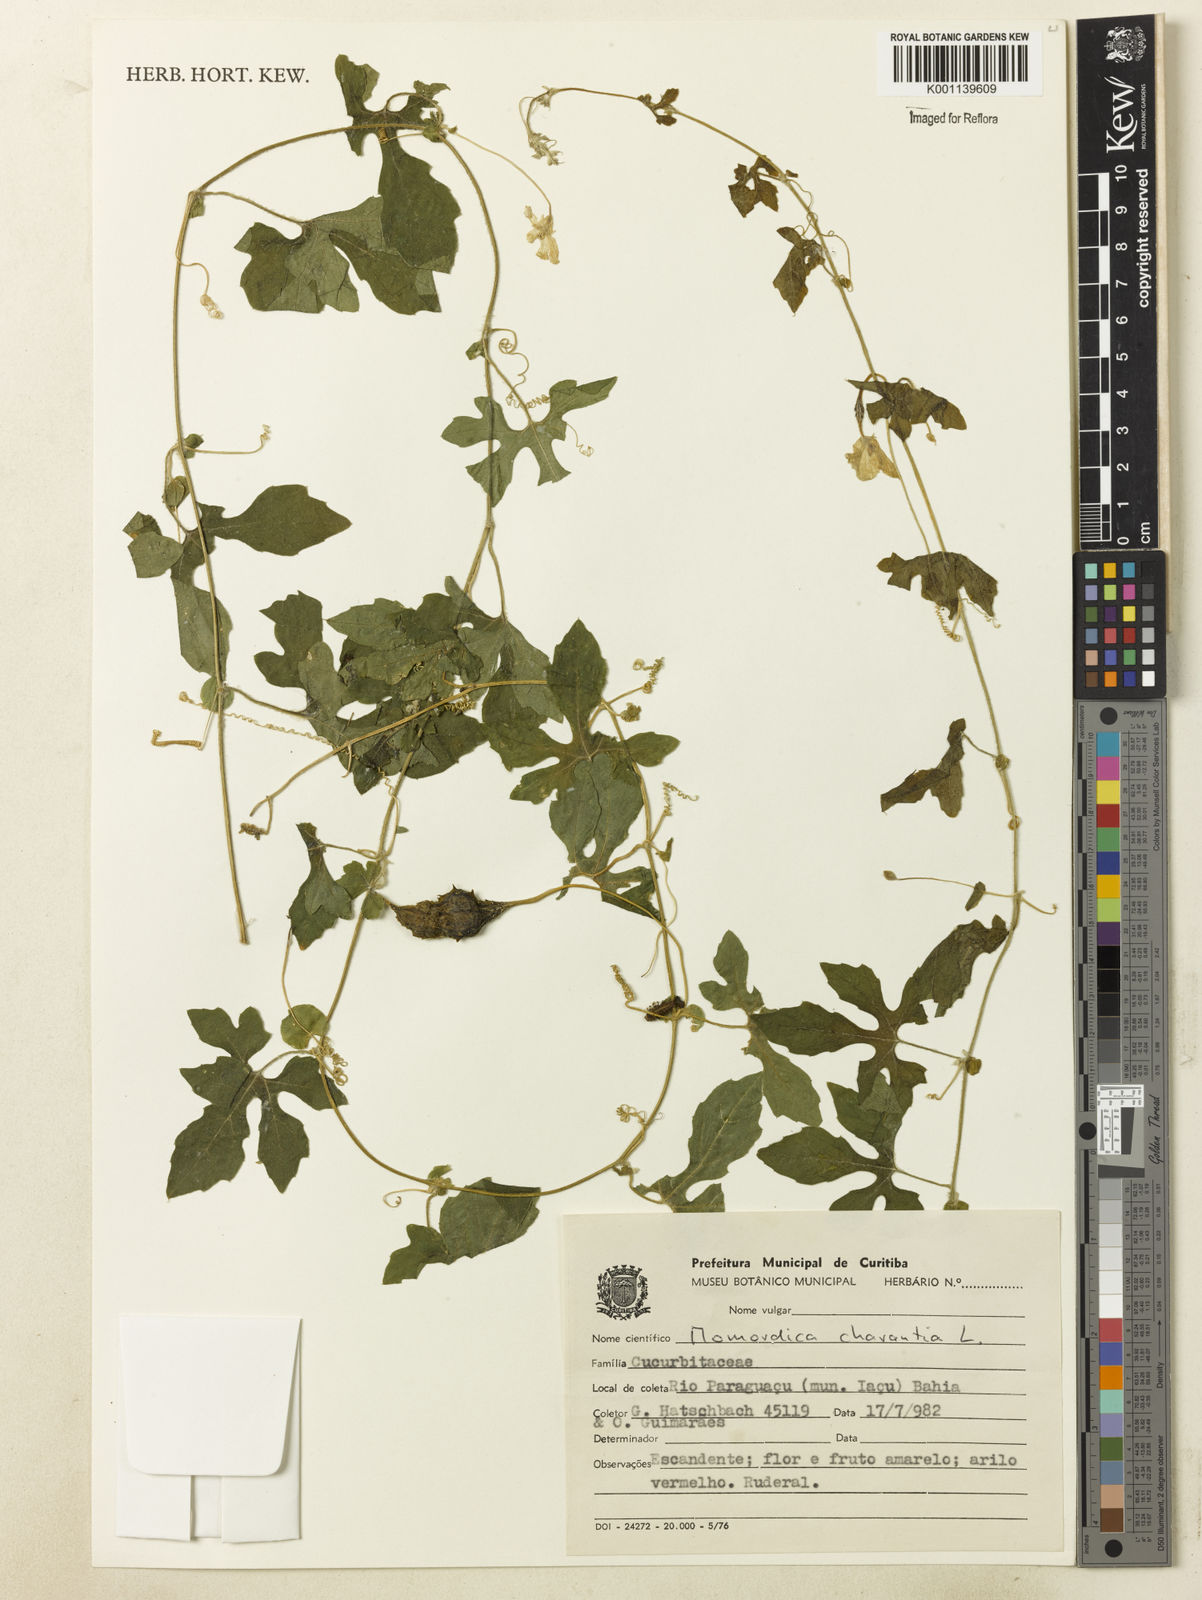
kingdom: Plantae
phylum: Tracheophyta
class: Magnoliopsida
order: Cucurbitales
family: Cucurbitaceae
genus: Momordica
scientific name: Momordica charantia
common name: Balsampear
